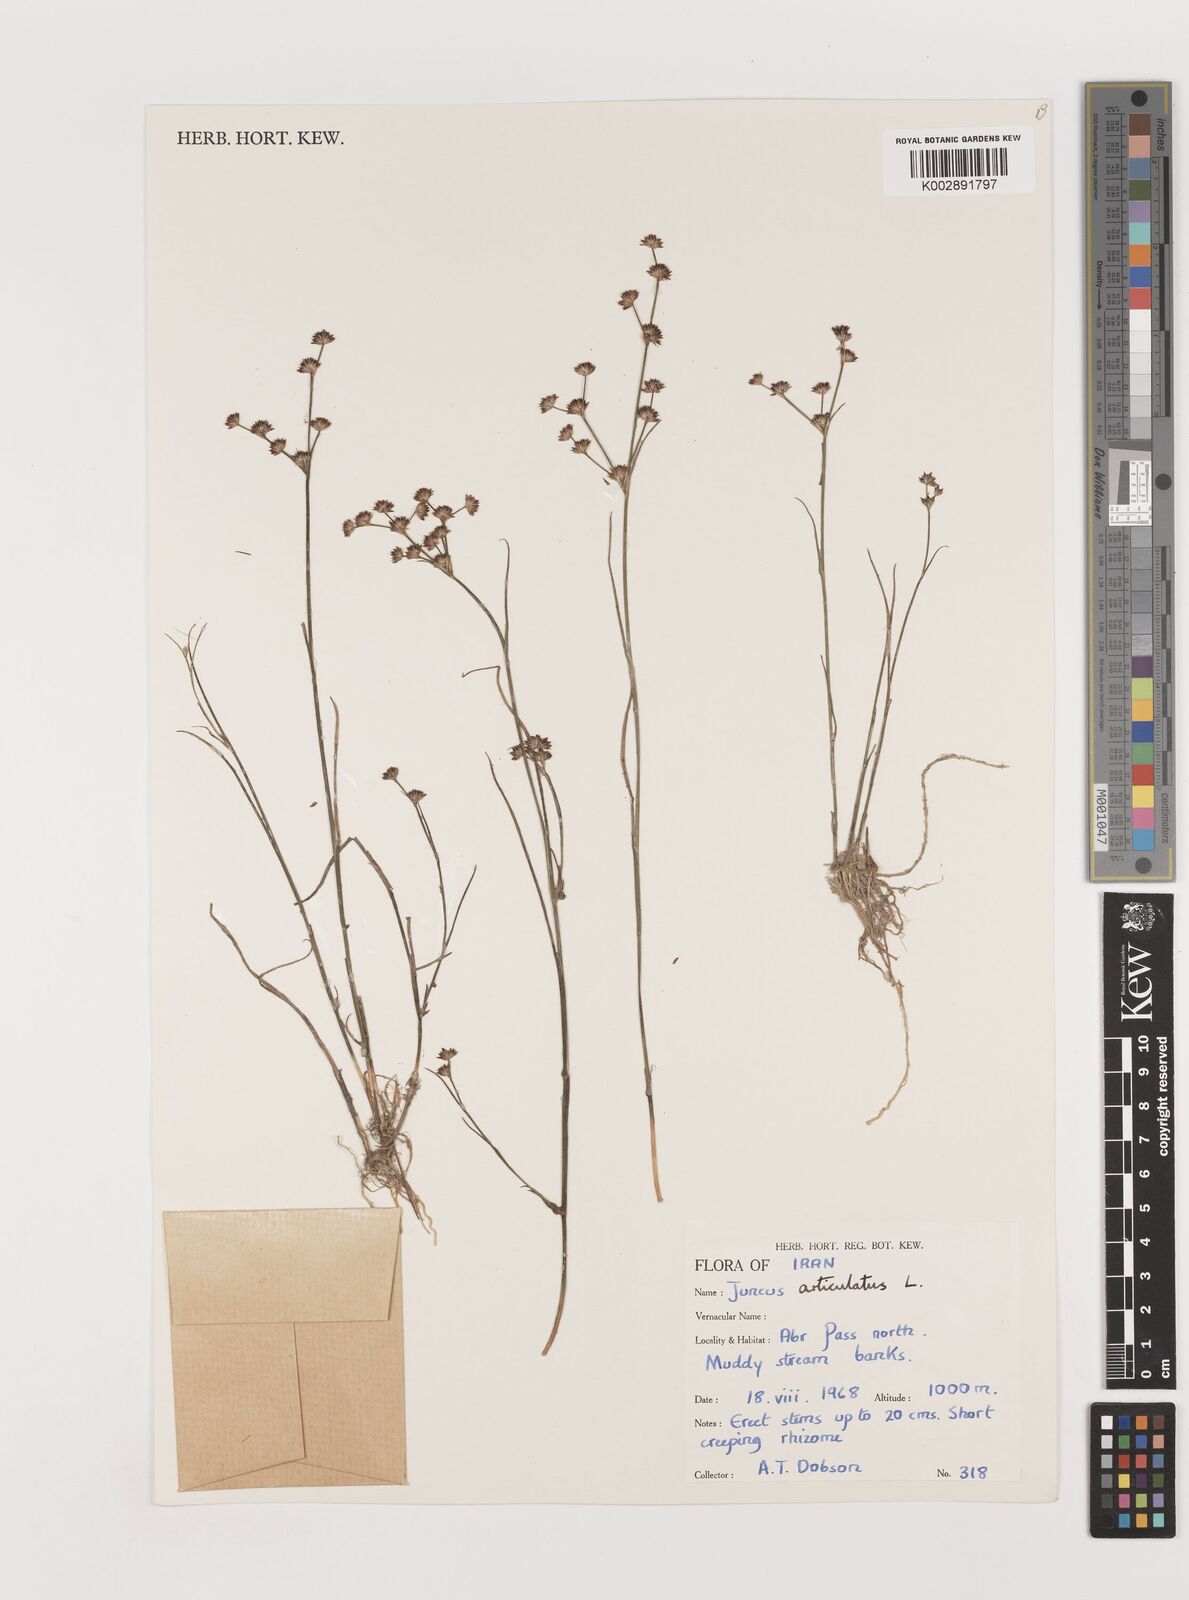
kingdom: Plantae
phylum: Tracheophyta
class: Liliopsida
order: Poales
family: Juncaceae
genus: Juncus
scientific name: Juncus articulatus
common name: Jointed rush
